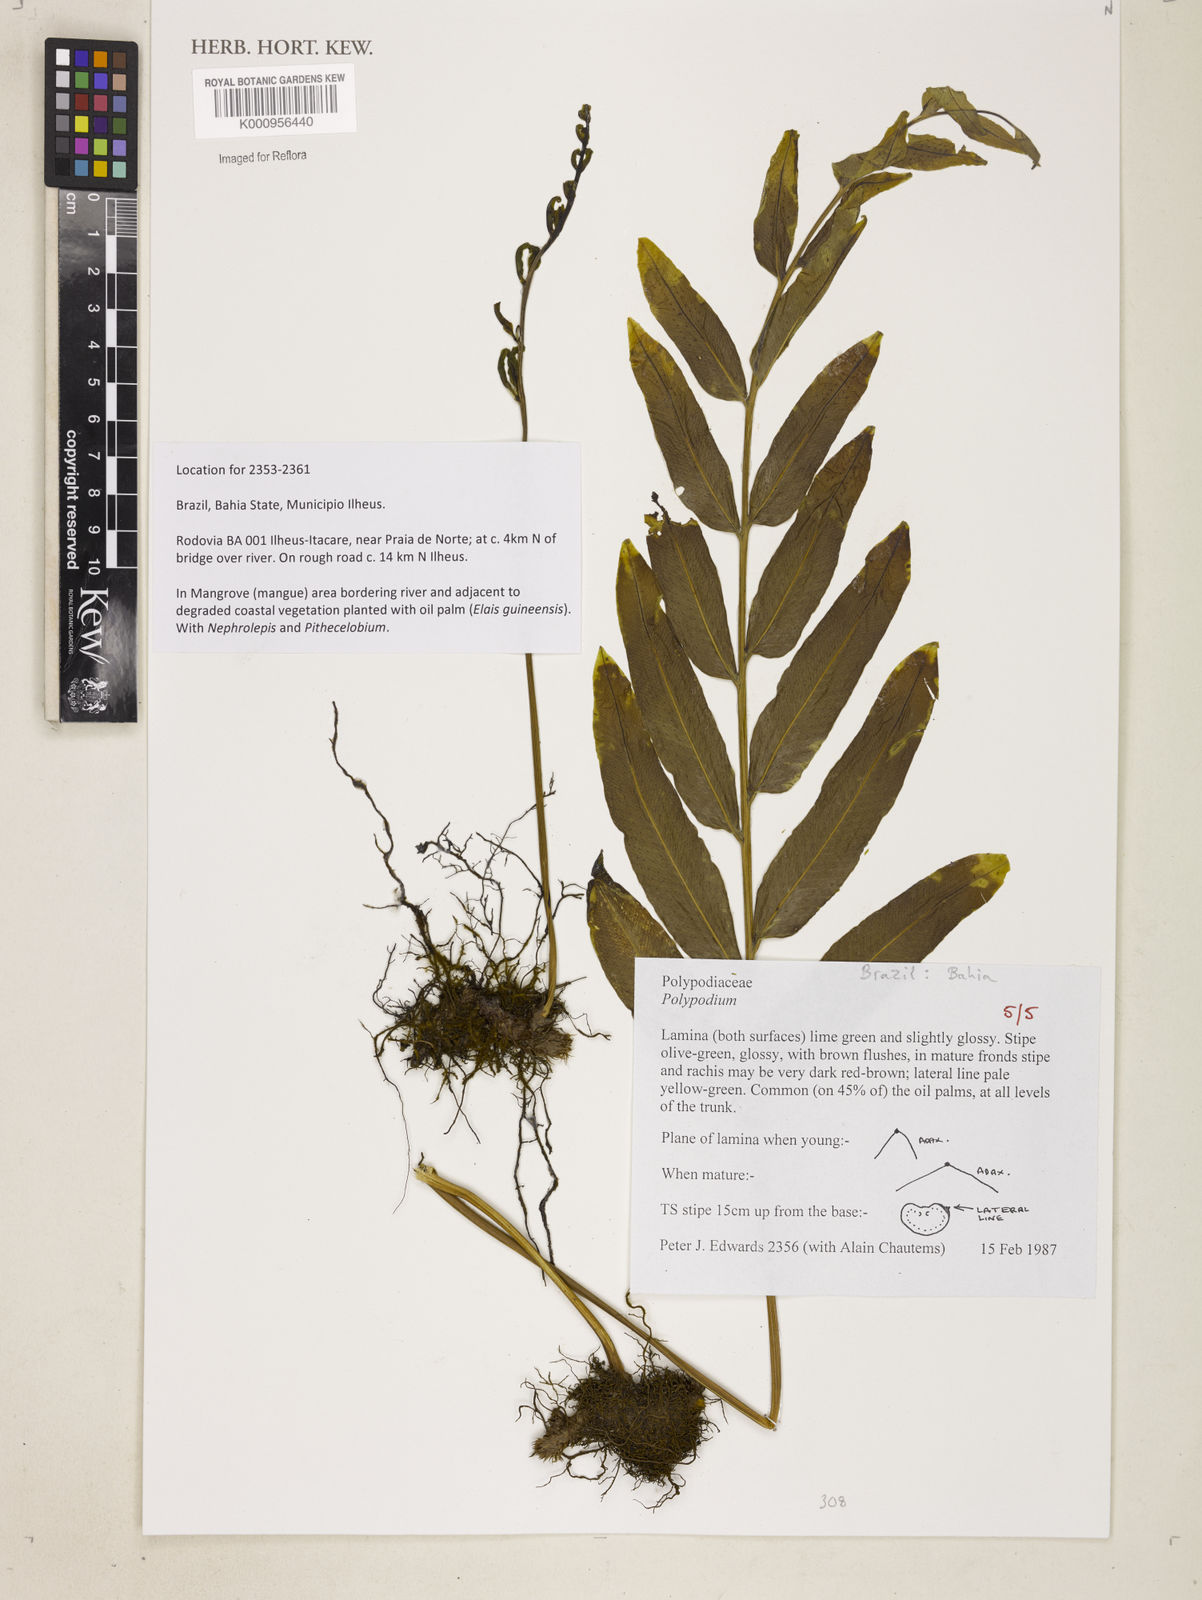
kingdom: Plantae
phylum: Tracheophyta
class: Polypodiopsida
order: Polypodiales
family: Polypodiaceae
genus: Polypodium
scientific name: Polypodium
